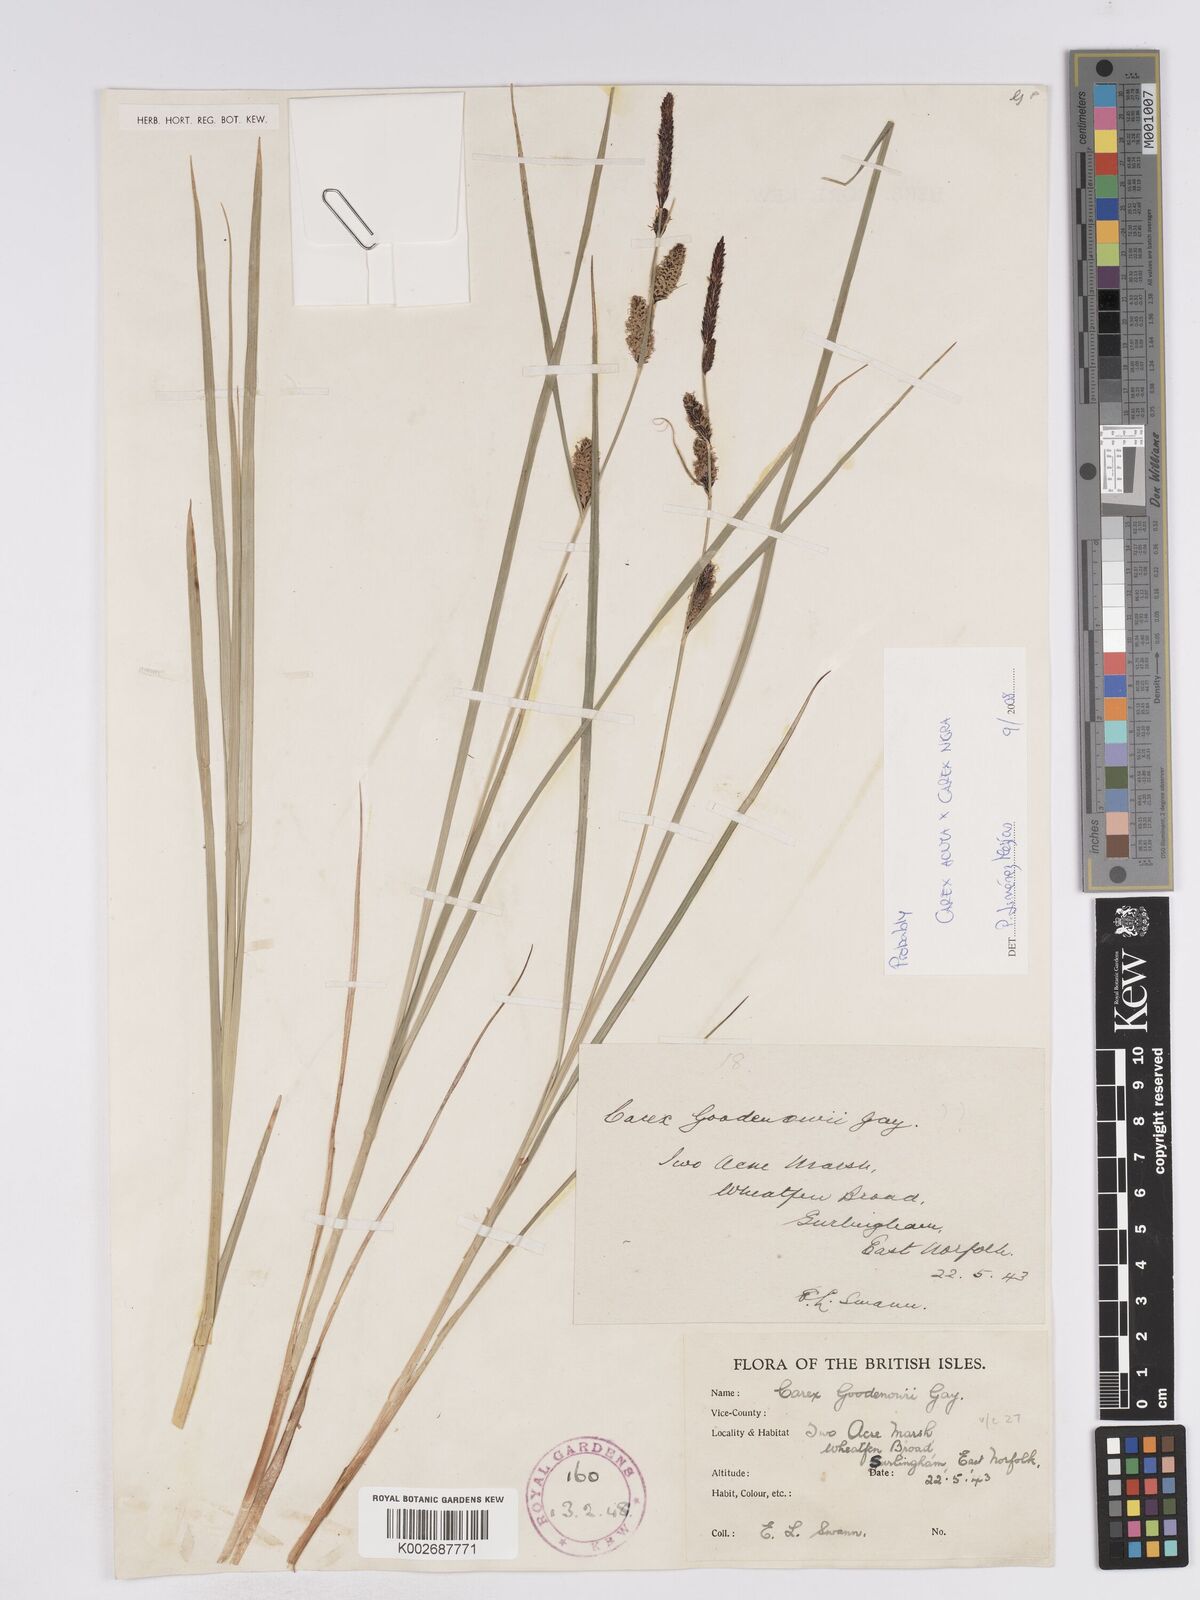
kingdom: Plantae
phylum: Tracheophyta
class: Liliopsida
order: Poales
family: Cyperaceae
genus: Carex
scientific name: Carex acuta
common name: Slender tufted-sedge
